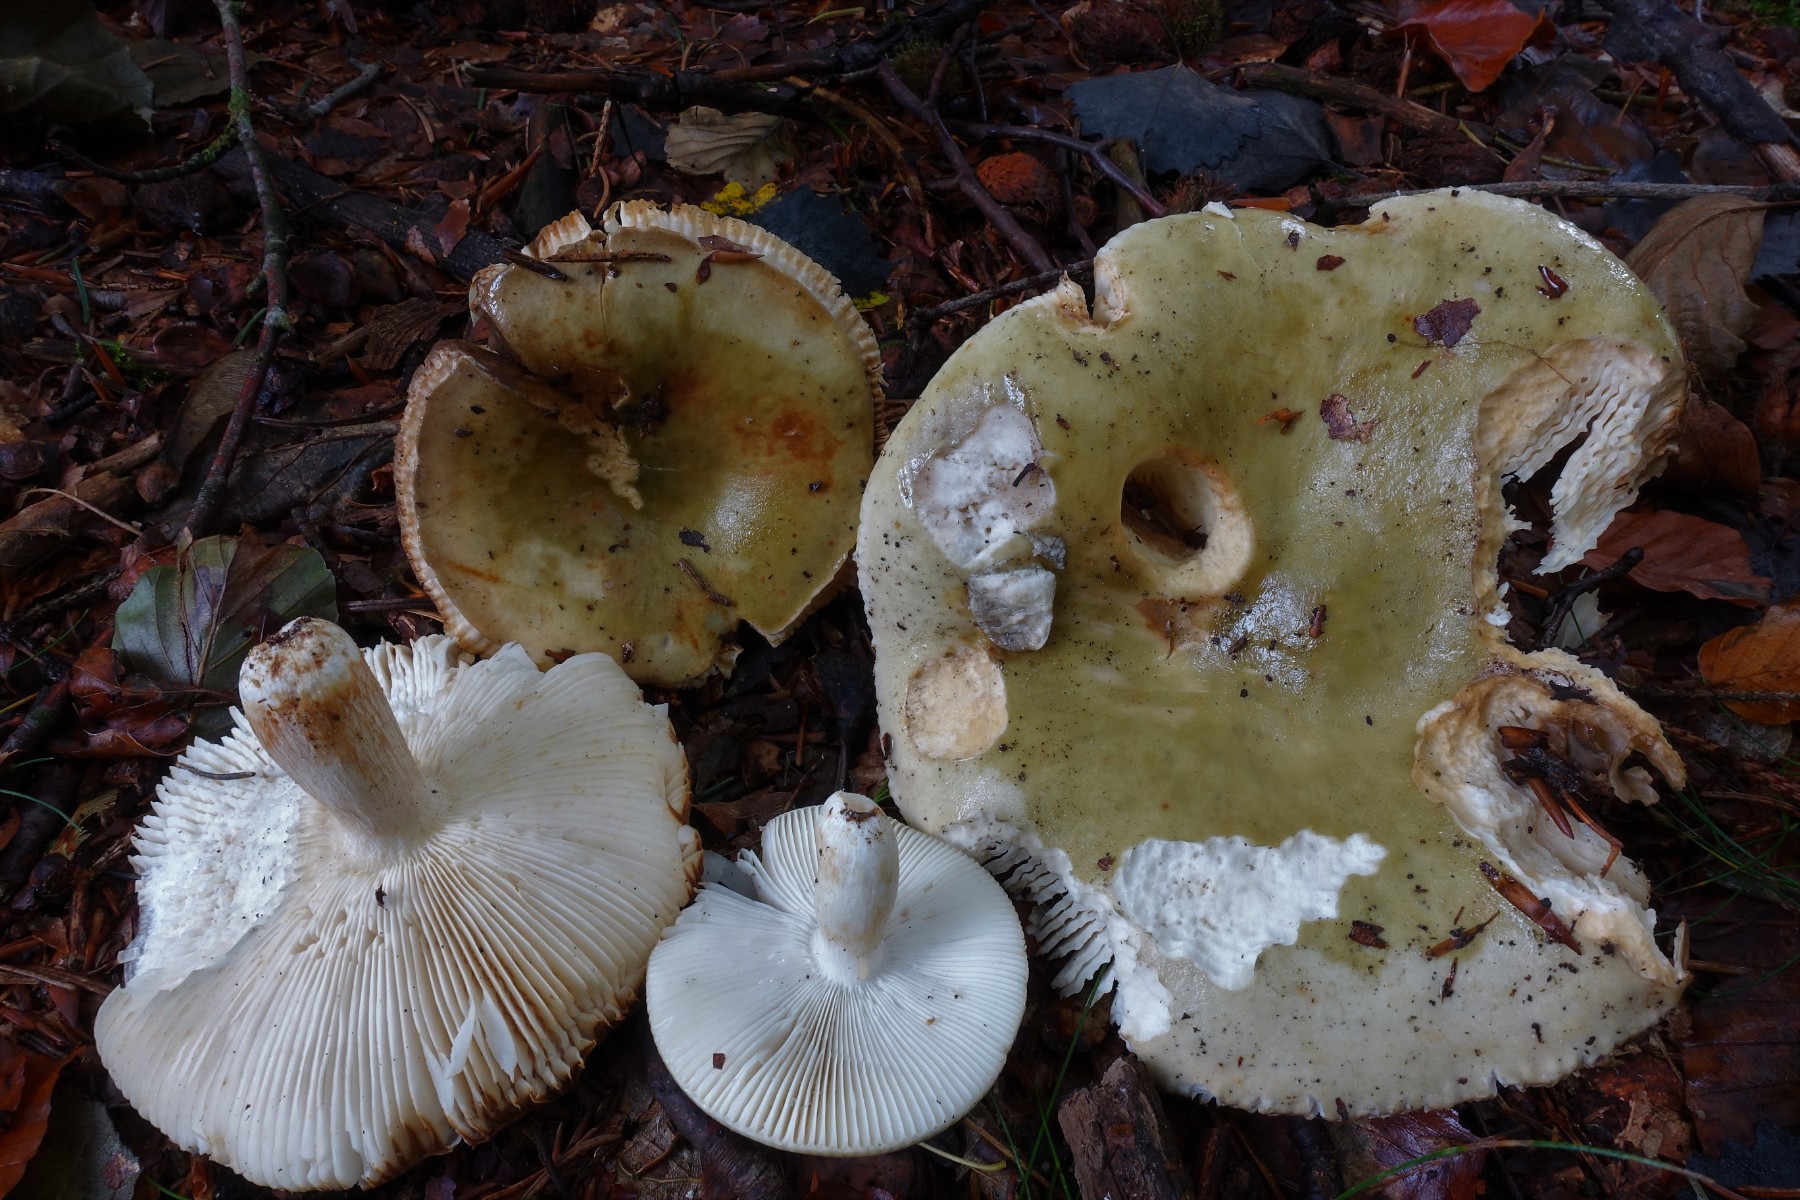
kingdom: Fungi
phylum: Basidiomycota
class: Agaricomycetes
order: Russulales
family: Russulaceae
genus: Russula
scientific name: Russula heterophylla
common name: gaffelbladet skørhat
